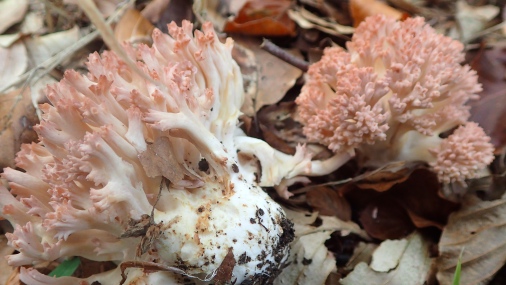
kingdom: Fungi
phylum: Basidiomycota
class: Agaricomycetes
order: Gomphales
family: Gomphaceae
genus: Ramaria
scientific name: Ramaria botrytis
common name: drue-koralsvamp
